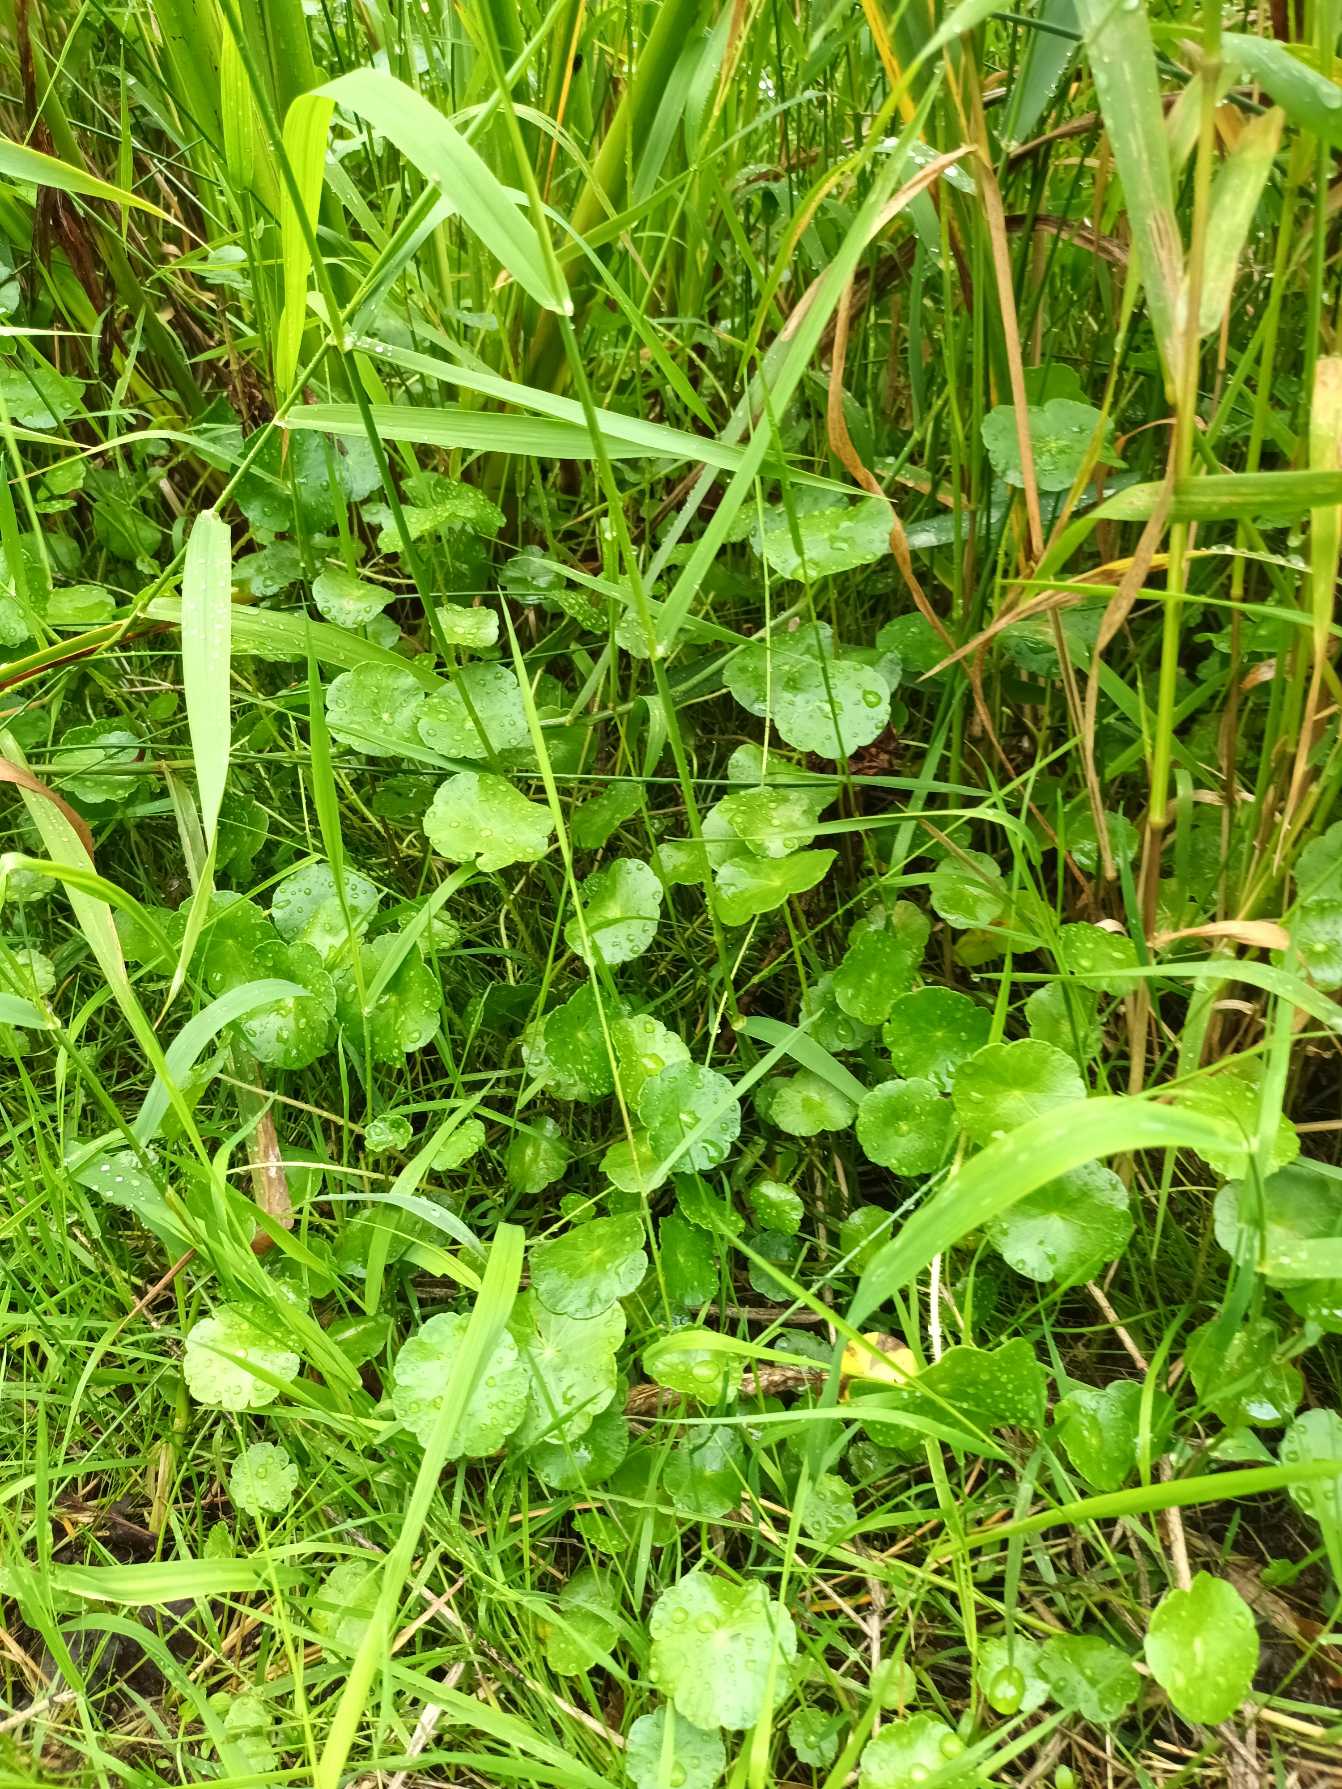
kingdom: Plantae
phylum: Tracheophyta
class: Magnoliopsida
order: Apiales
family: Araliaceae
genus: Hydrocotyle
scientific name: Hydrocotyle vulgaris
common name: Vandnavle
